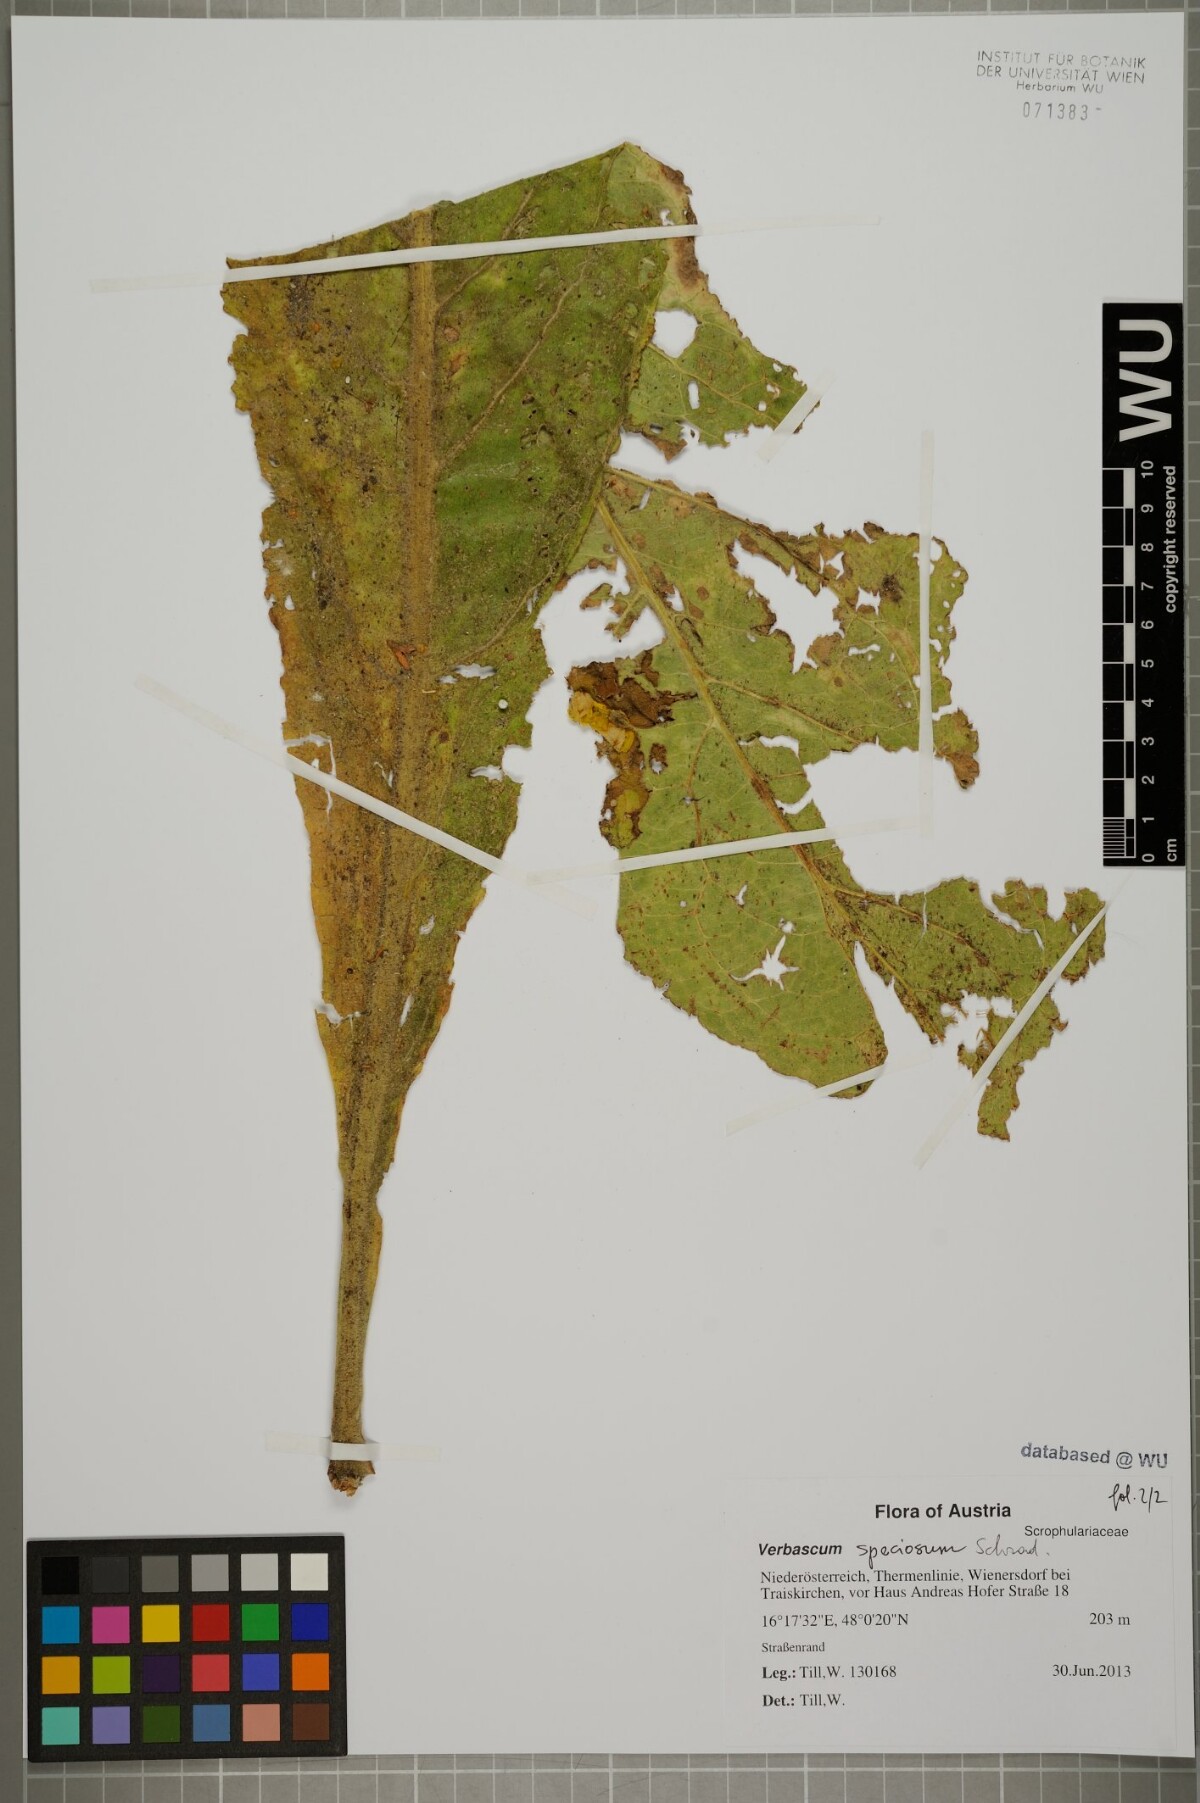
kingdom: Plantae
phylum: Tracheophyta
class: Magnoliopsida
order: Lamiales
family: Scrophulariaceae
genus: Verbascum
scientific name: Verbascum speciosum
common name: Hungarian mullein
